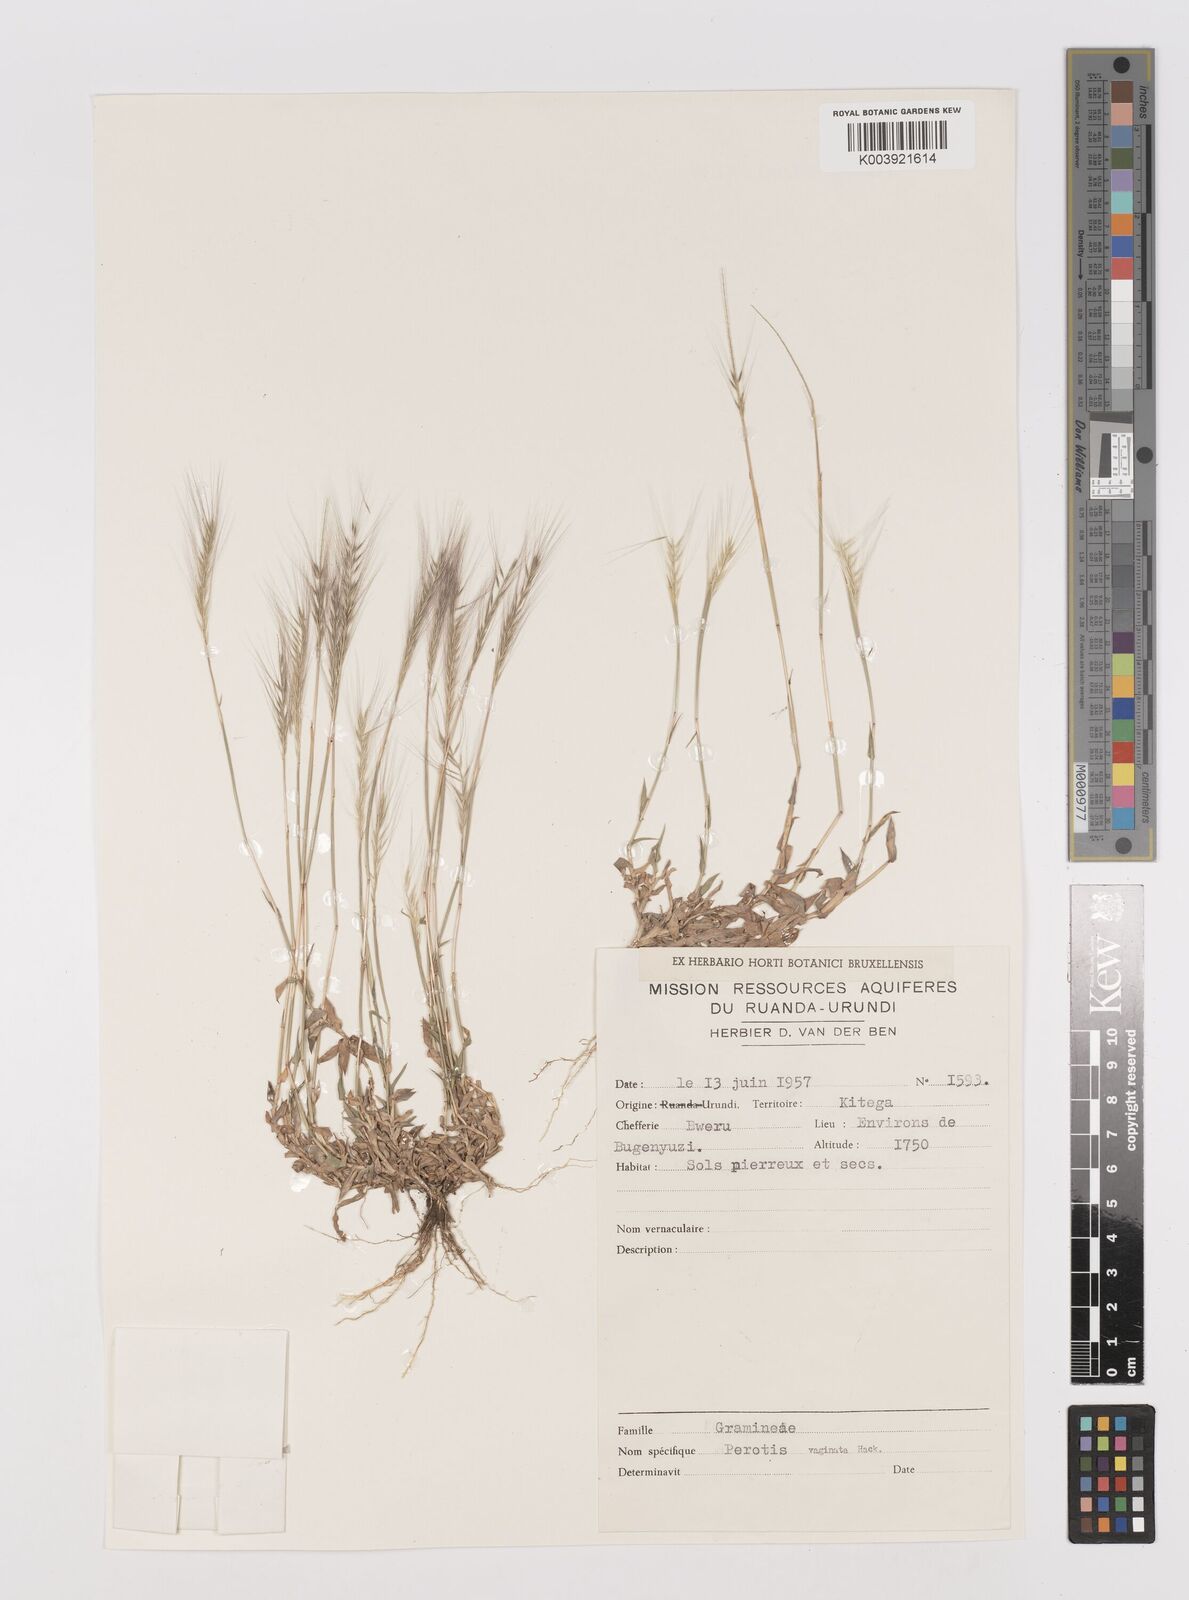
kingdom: Plantae
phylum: Tracheophyta
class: Liliopsida
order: Poales
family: Poaceae
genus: Perotis
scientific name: Perotis
